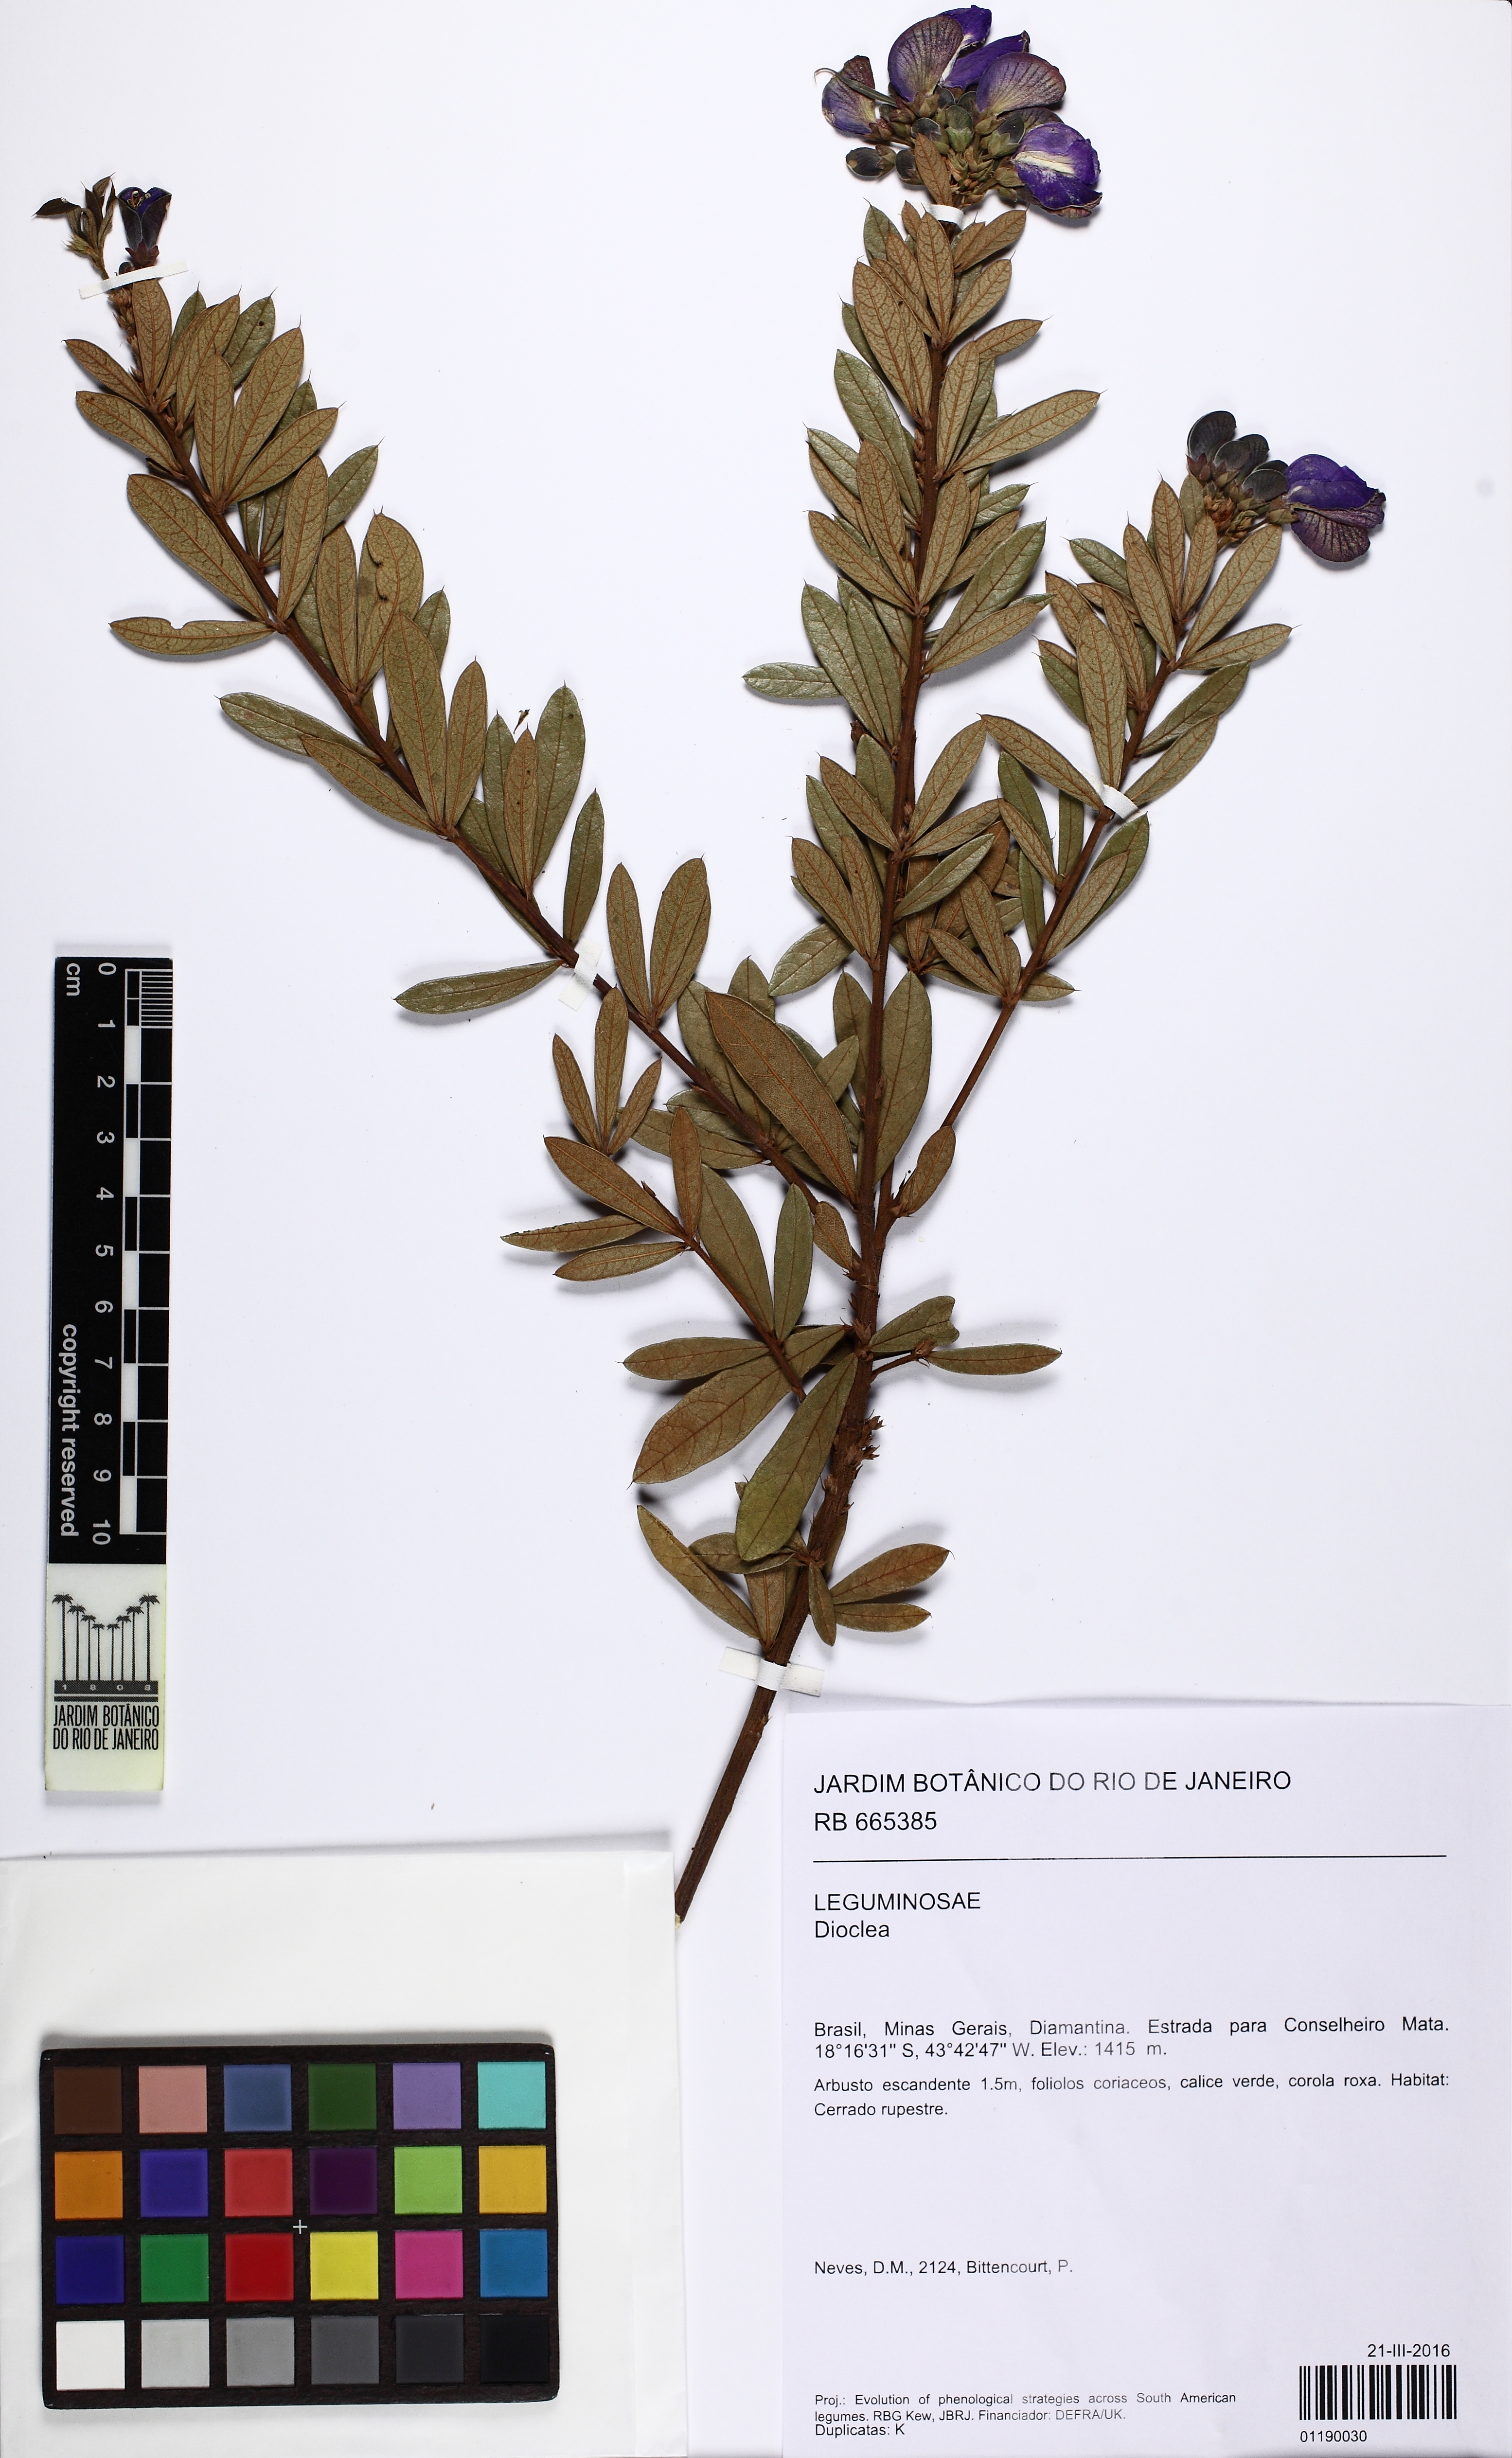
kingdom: Plantae
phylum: Tracheophyta
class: Magnoliopsida
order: Fabales
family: Fabaceae
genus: Periandra
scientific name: Periandra mediterranea
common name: Brazilian licorice
